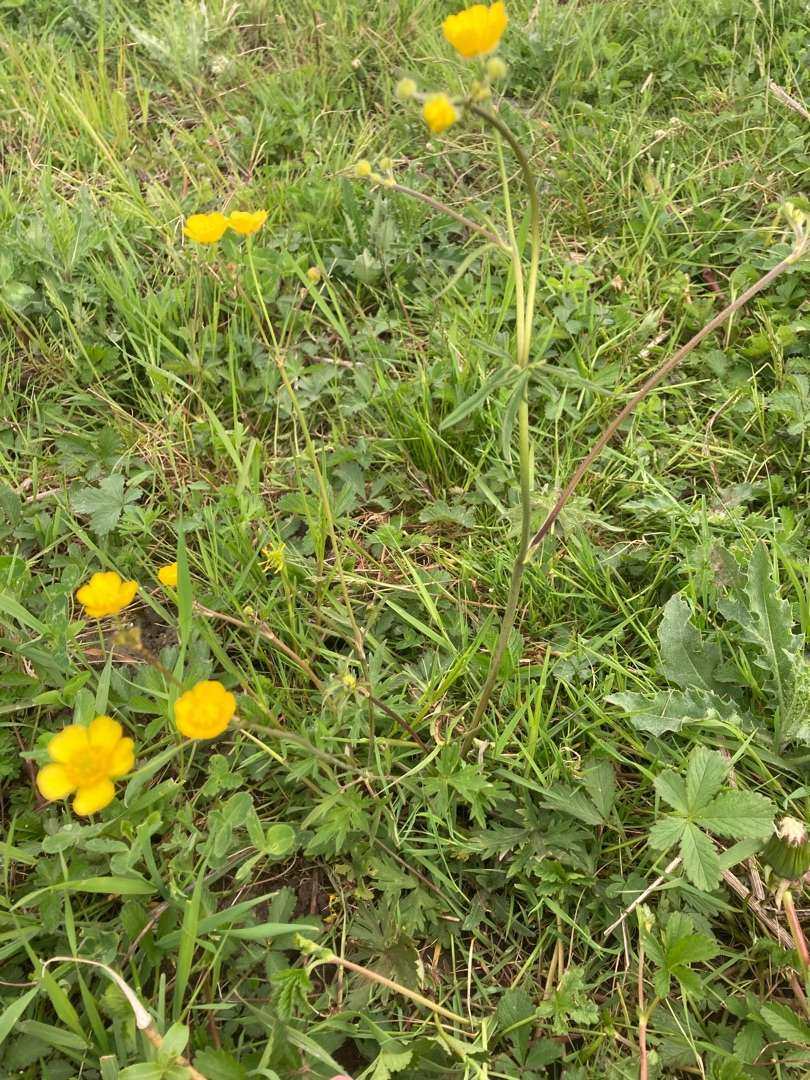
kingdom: Plantae
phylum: Tracheophyta
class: Magnoliopsida
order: Ranunculales
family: Ranunculaceae
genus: Ranunculus
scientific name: Ranunculus acris
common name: Bidende ranunkel
